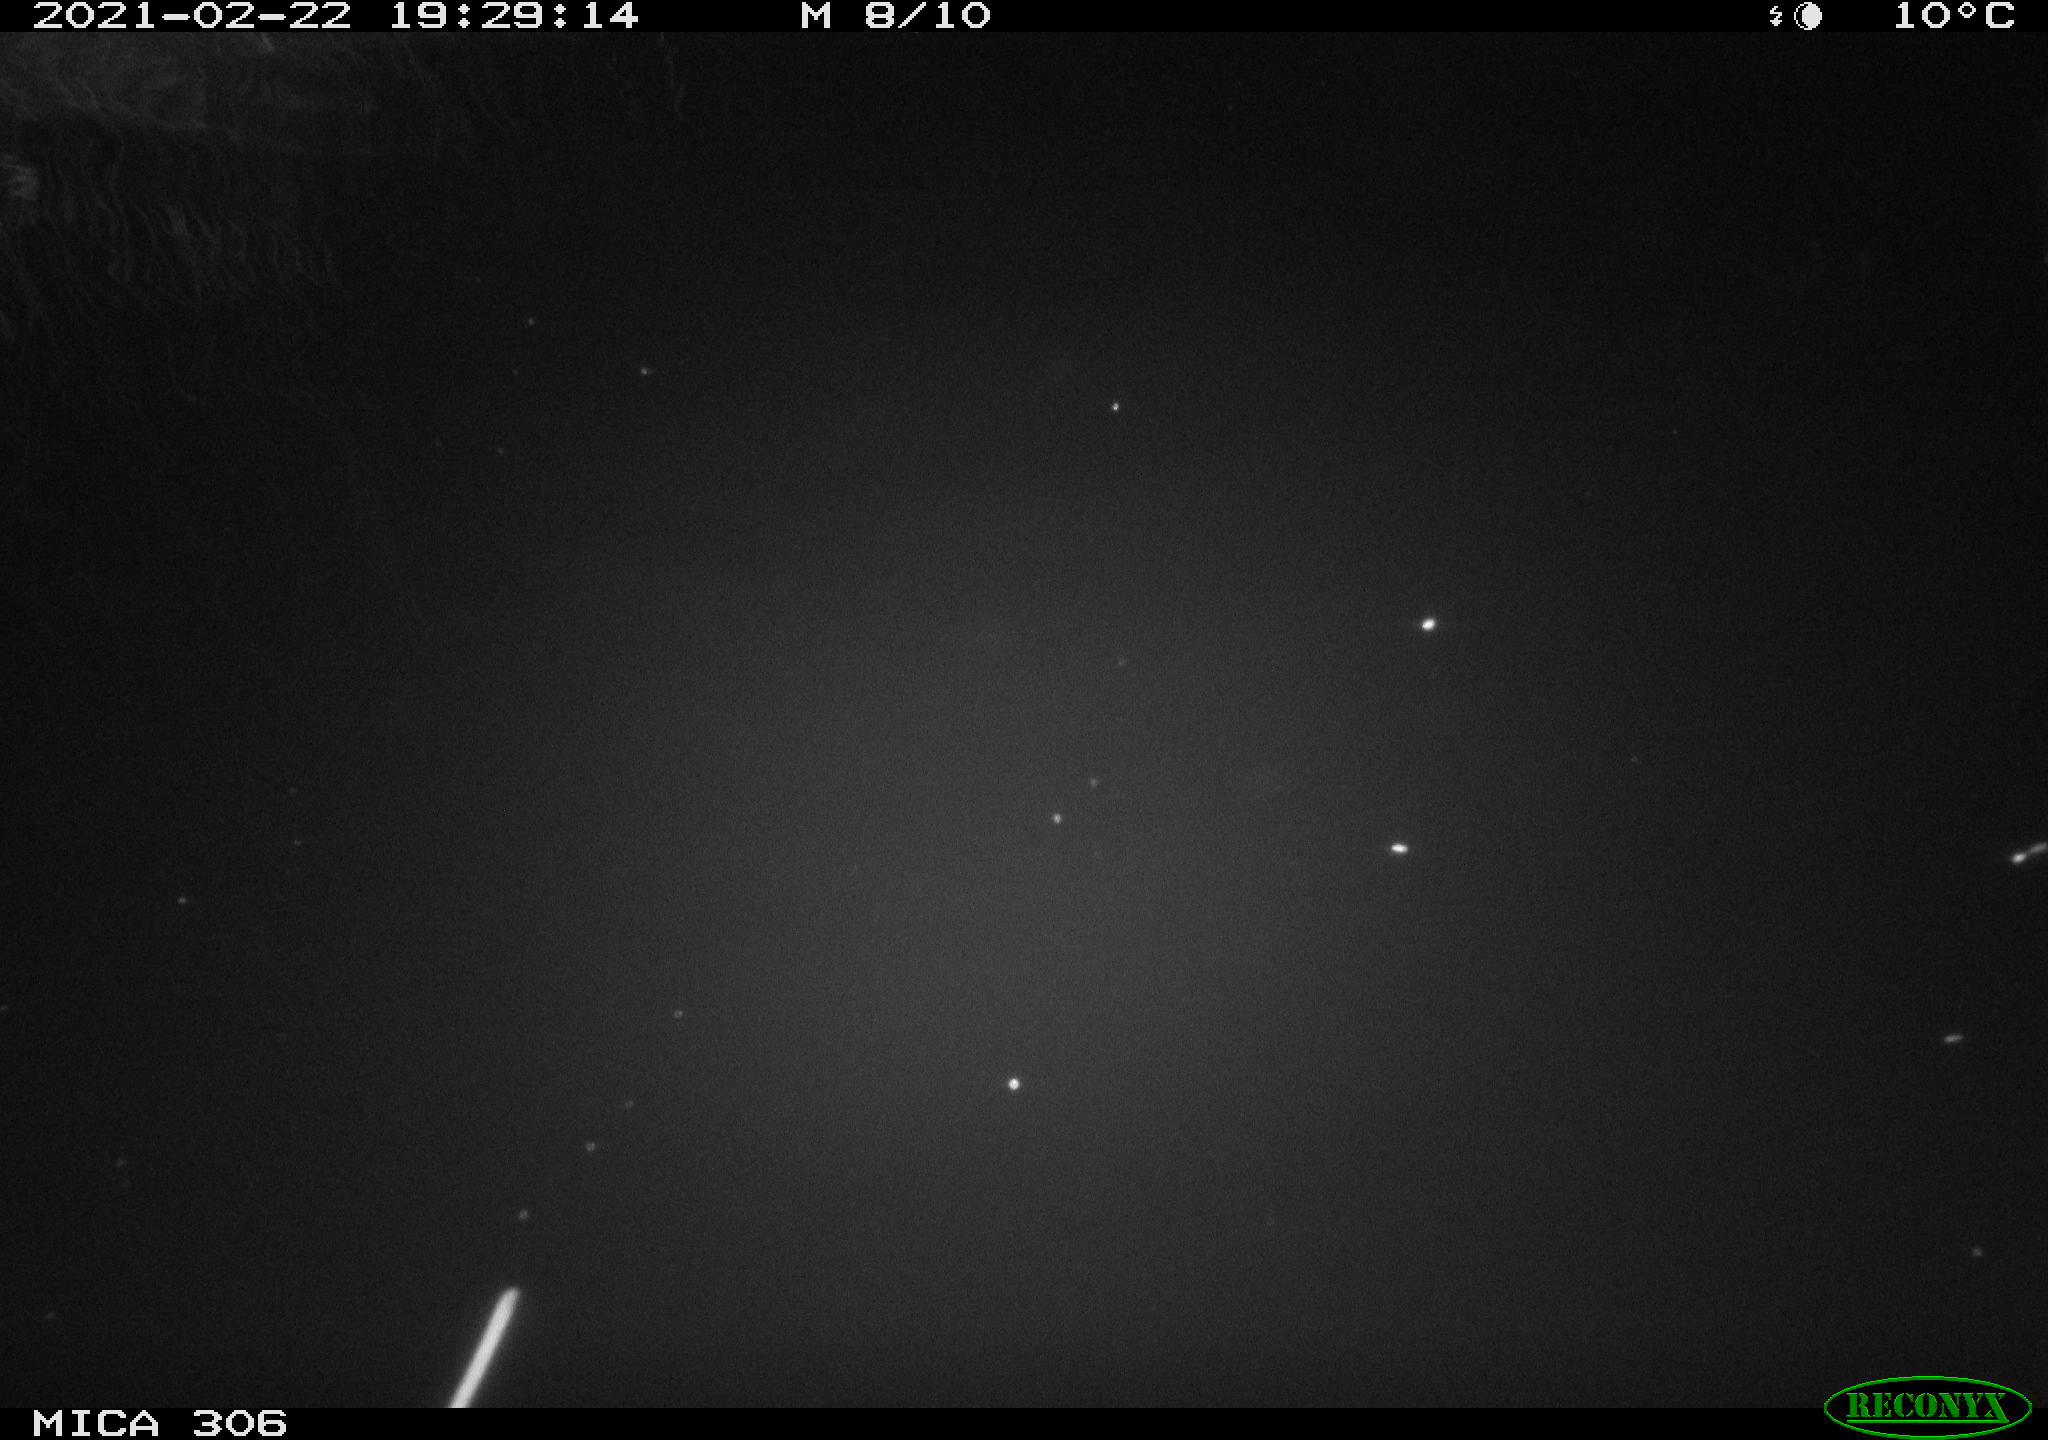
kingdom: Animalia
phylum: Chordata
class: Mammalia
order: Rodentia
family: Cricetidae
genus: Ondatra
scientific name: Ondatra zibethicus
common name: Muskrat
